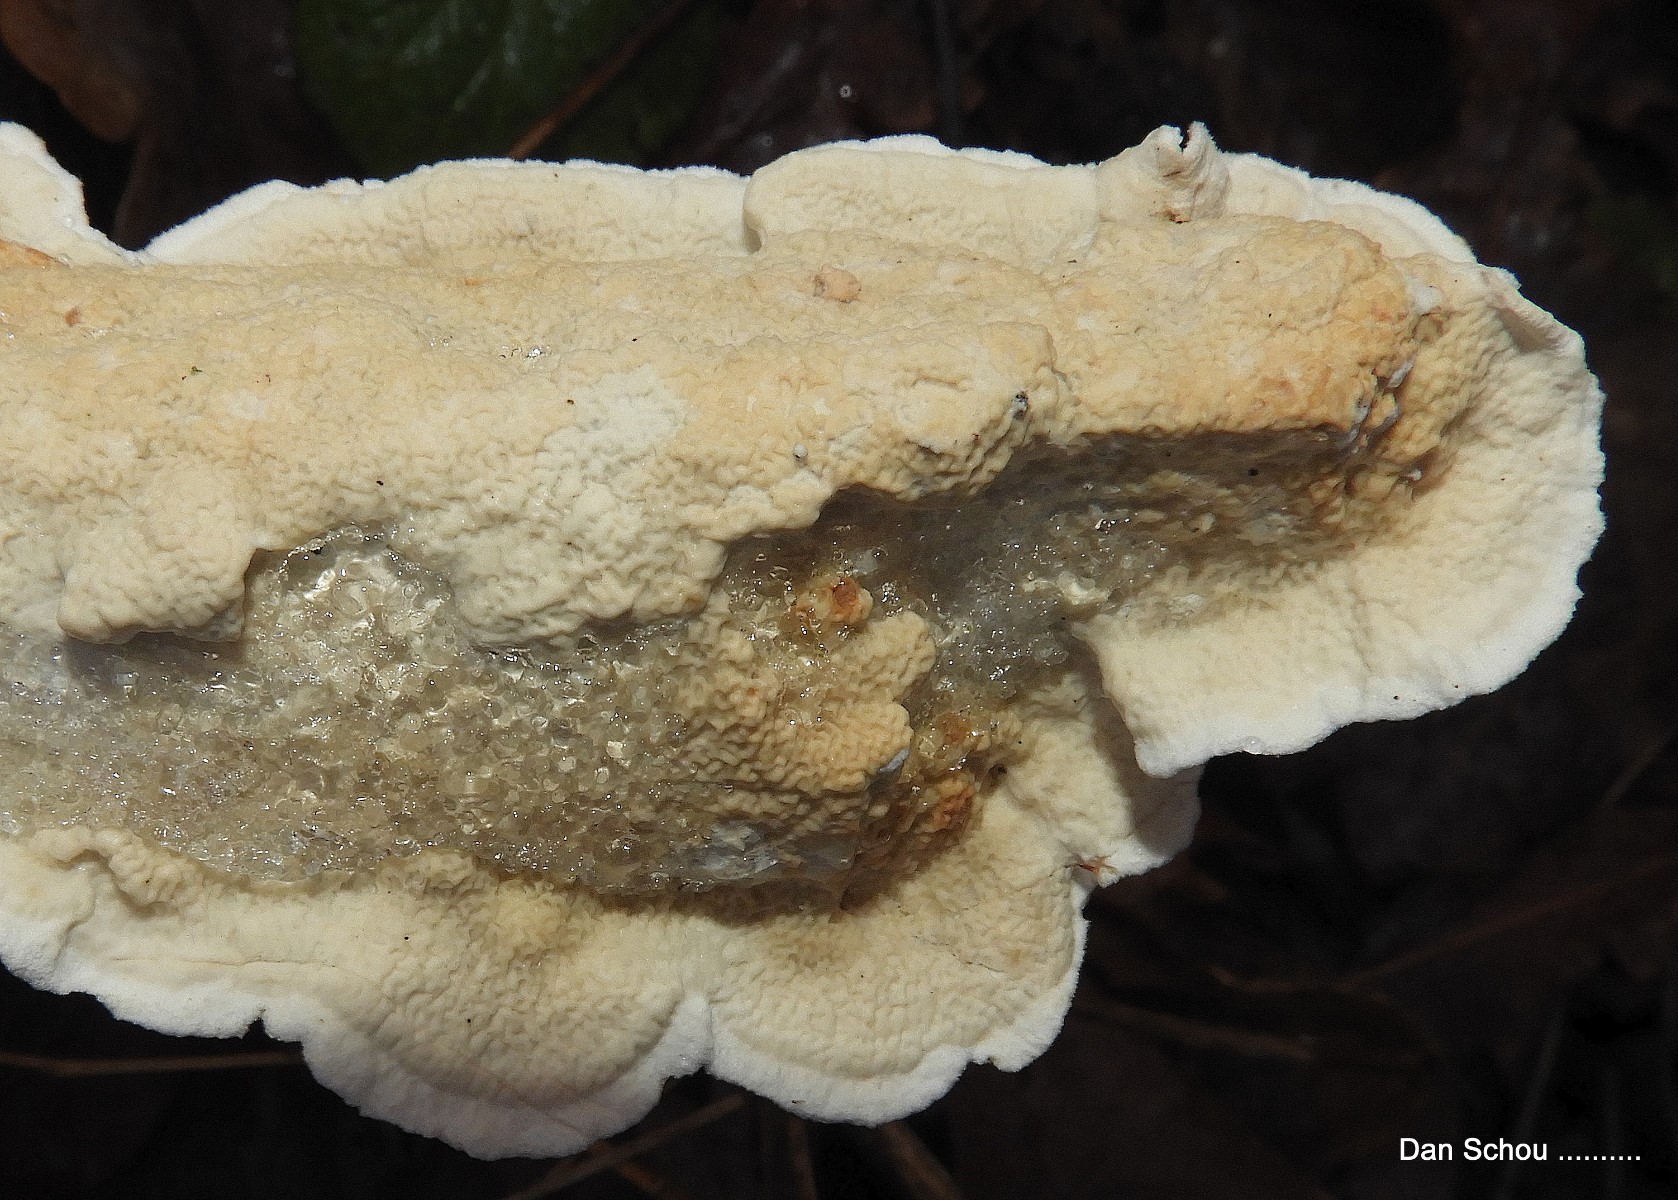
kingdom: Fungi
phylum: Basidiomycota
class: Agaricomycetes
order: Polyporales
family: Irpicaceae
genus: Byssomerulius
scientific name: Byssomerulius corium
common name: læder-åresvamp
